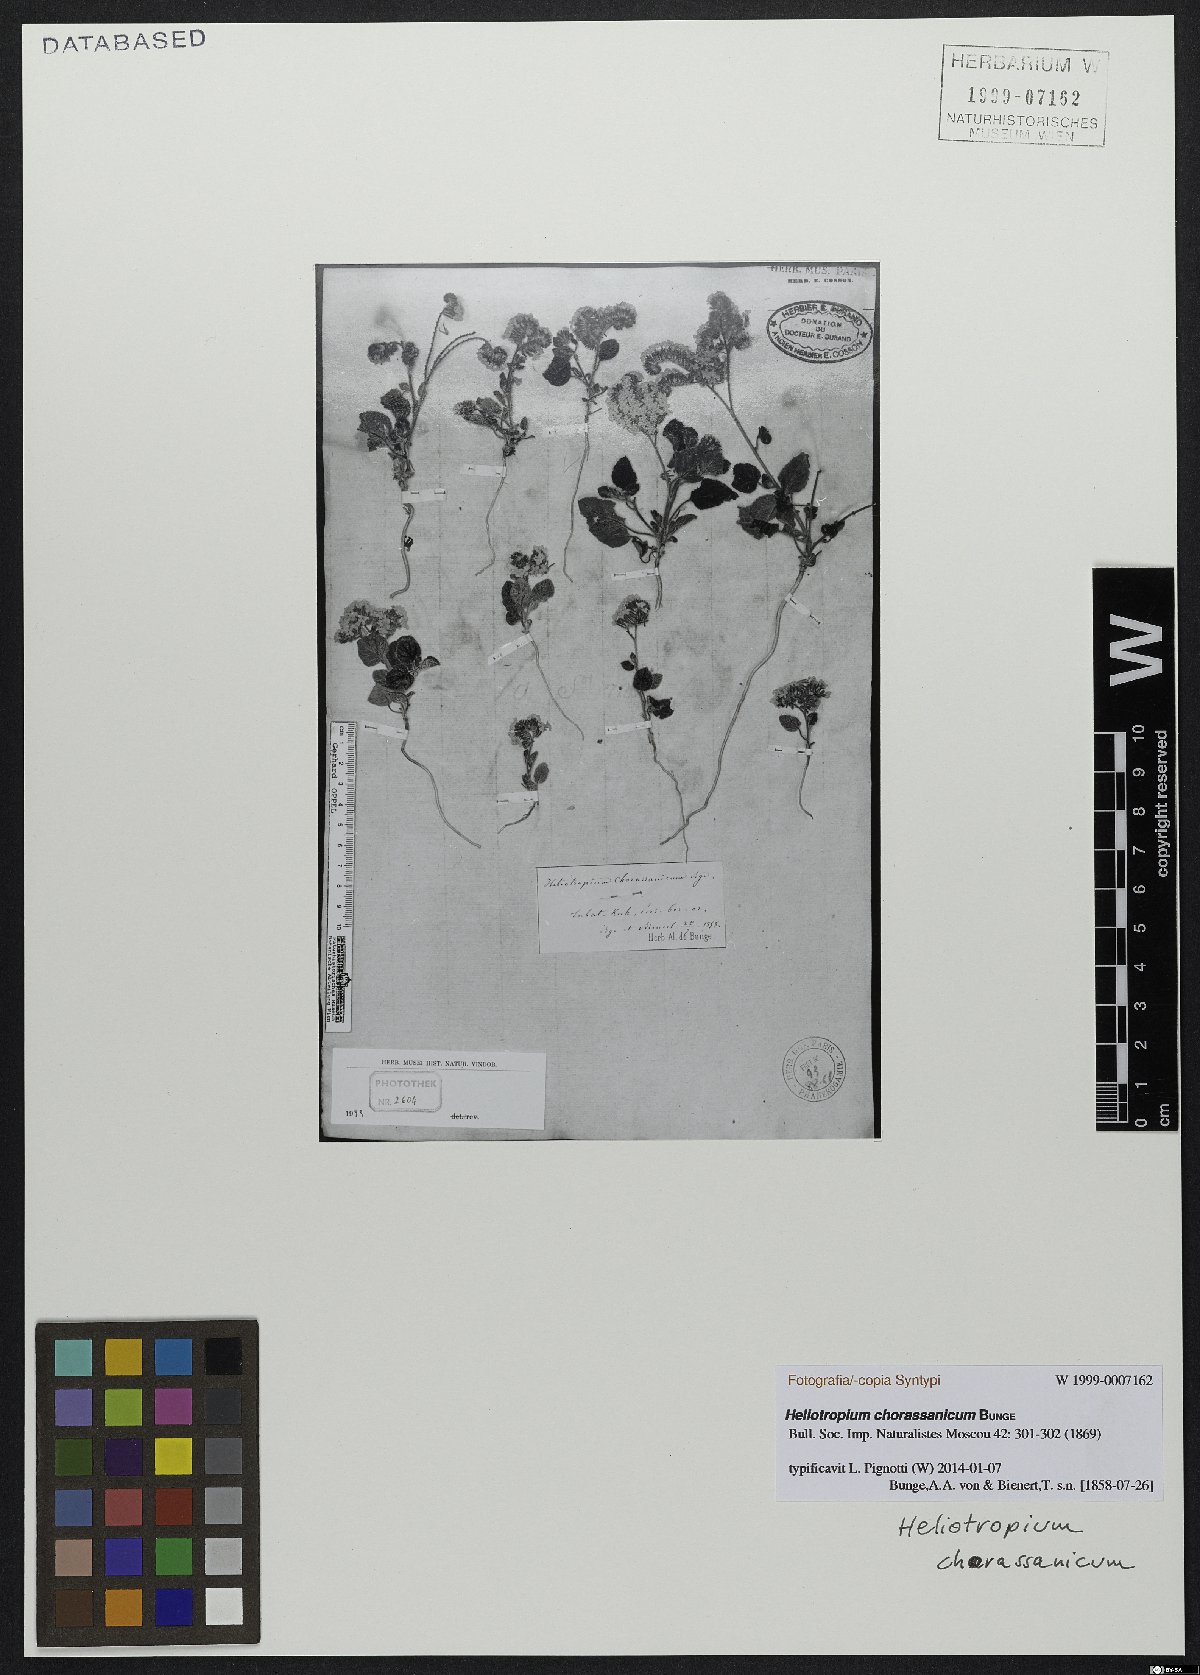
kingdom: Plantae
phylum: Tracheophyta
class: Magnoliopsida
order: Boraginales
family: Heliotropiaceae
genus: Heliotropium
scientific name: Heliotropium chorassanicum
